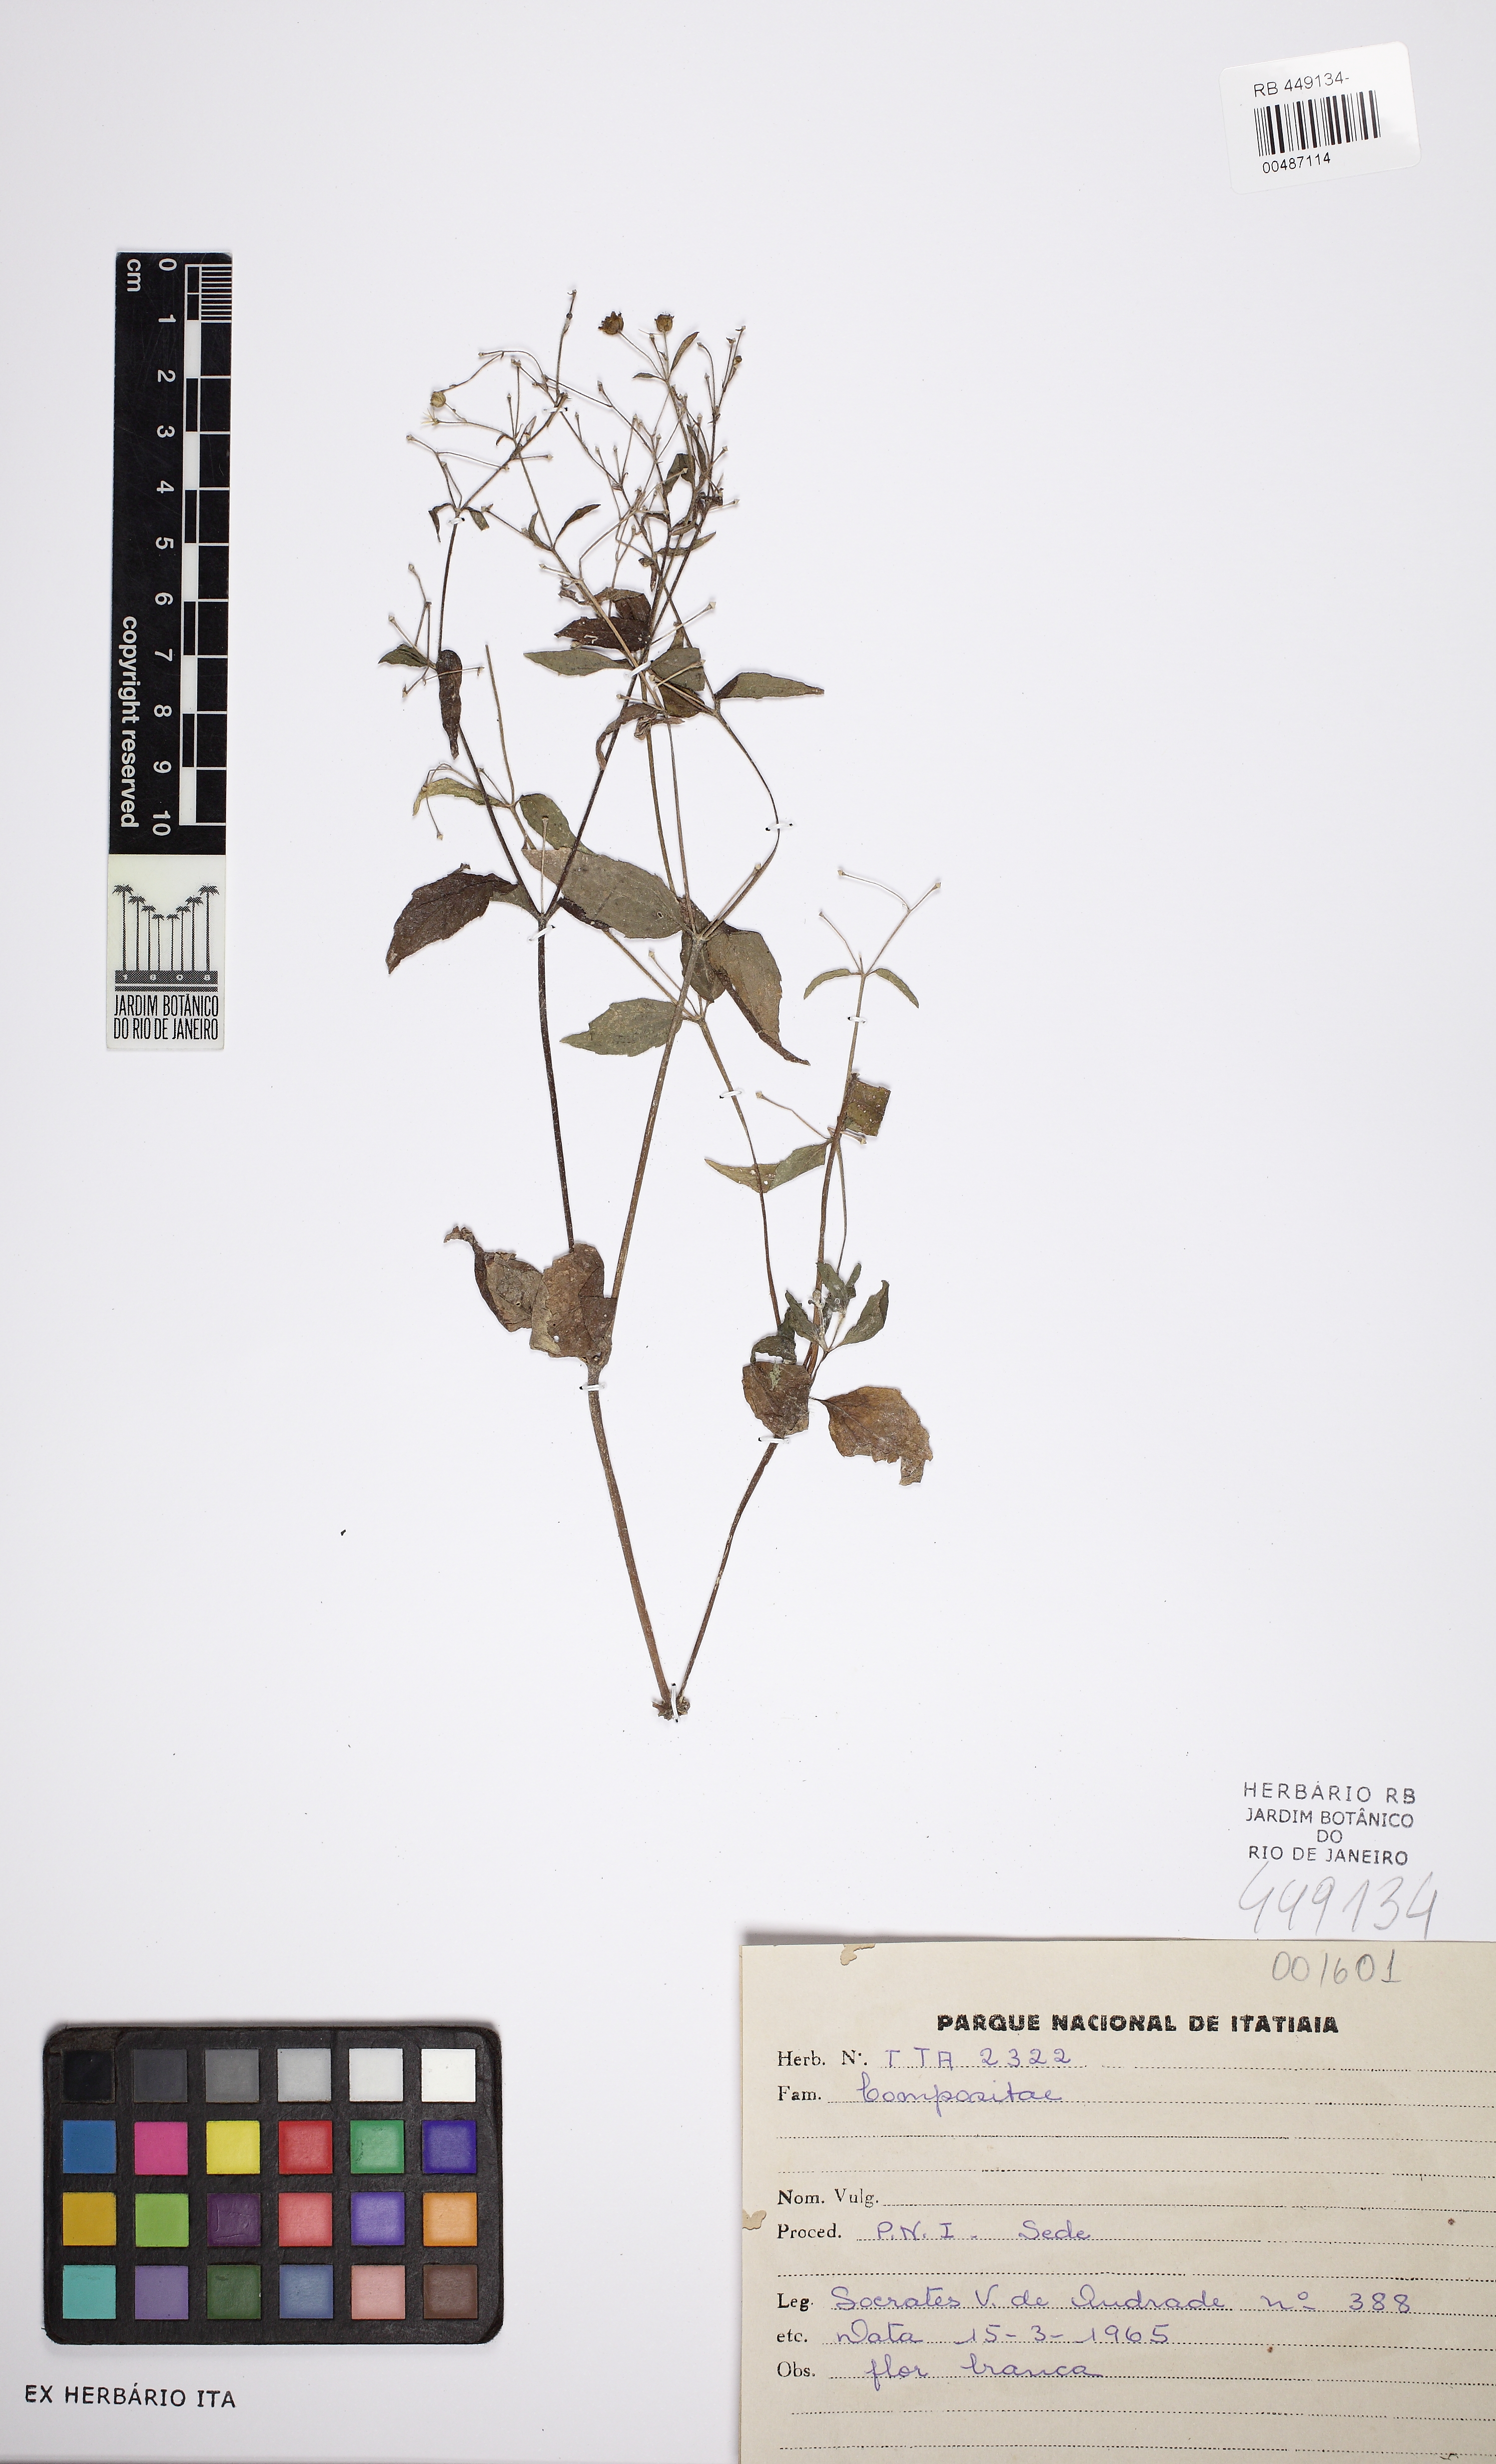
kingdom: Plantae
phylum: Tracheophyta
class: Magnoliopsida
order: Asterales
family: Asteraceae
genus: Galinsoga
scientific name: Galinsoga quadriradiata
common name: Shaggy soldier
